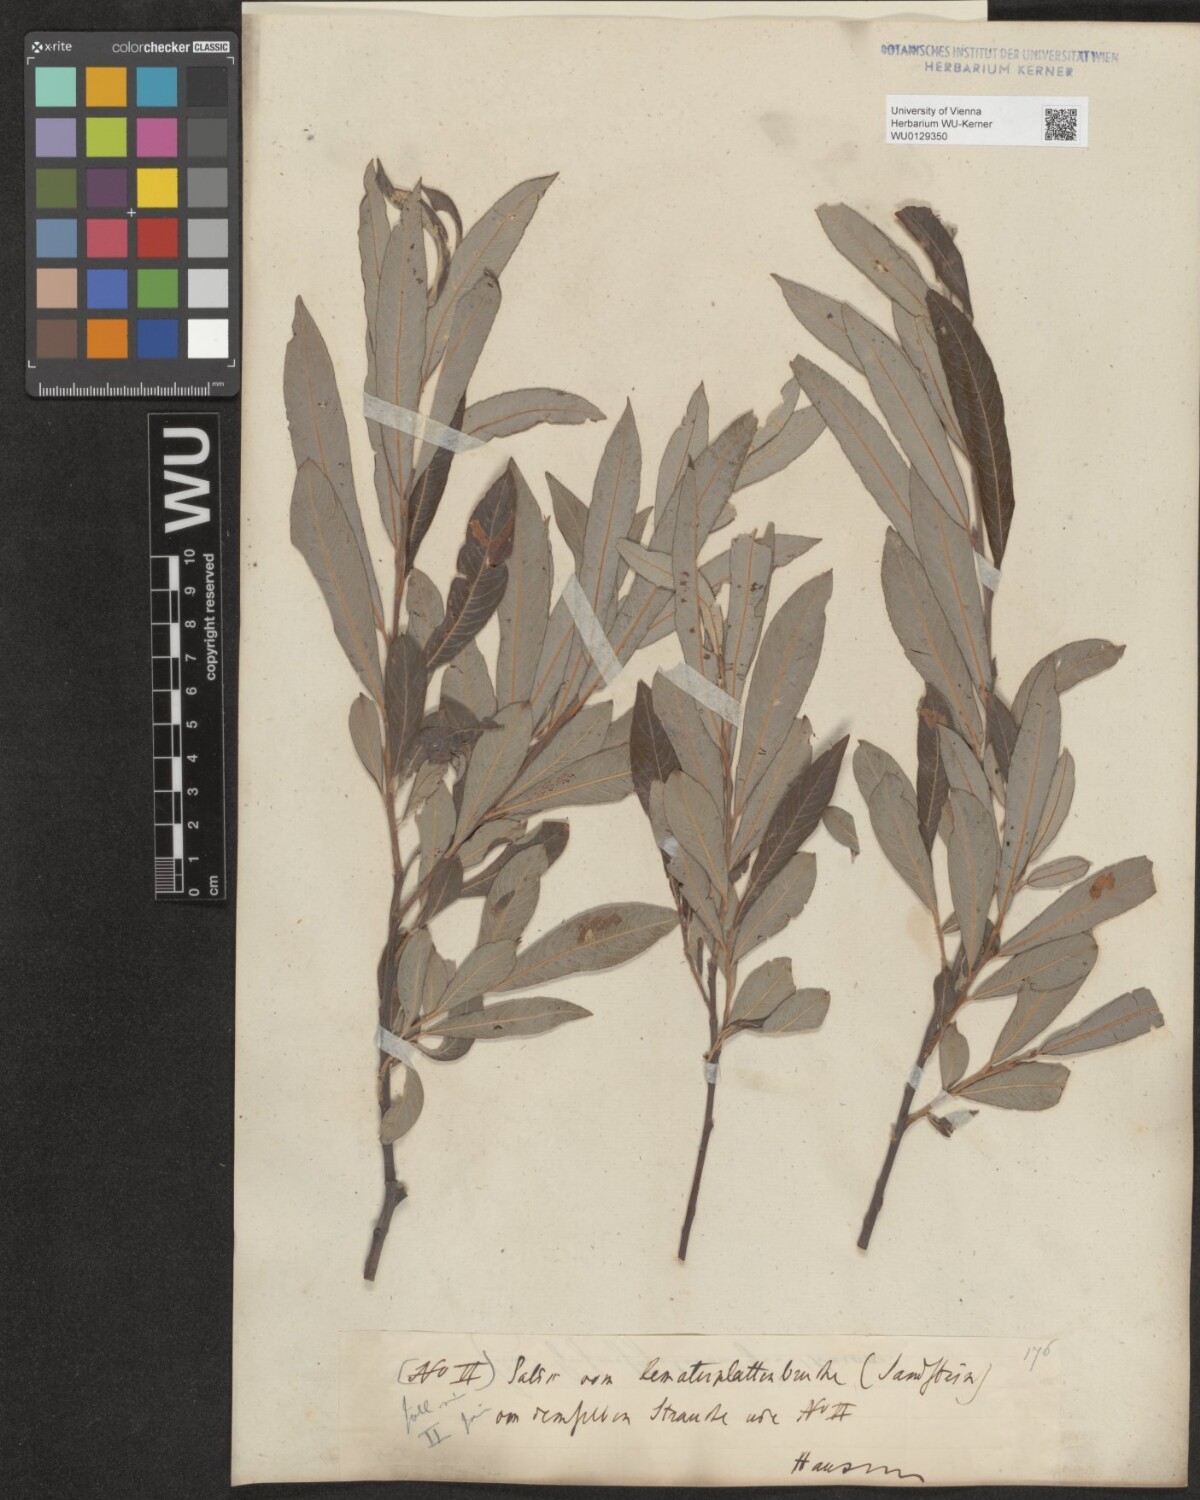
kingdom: Plantae
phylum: Tracheophyta
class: Magnoliopsida
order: Malpighiales
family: Salicaceae
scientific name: Salicaceae
